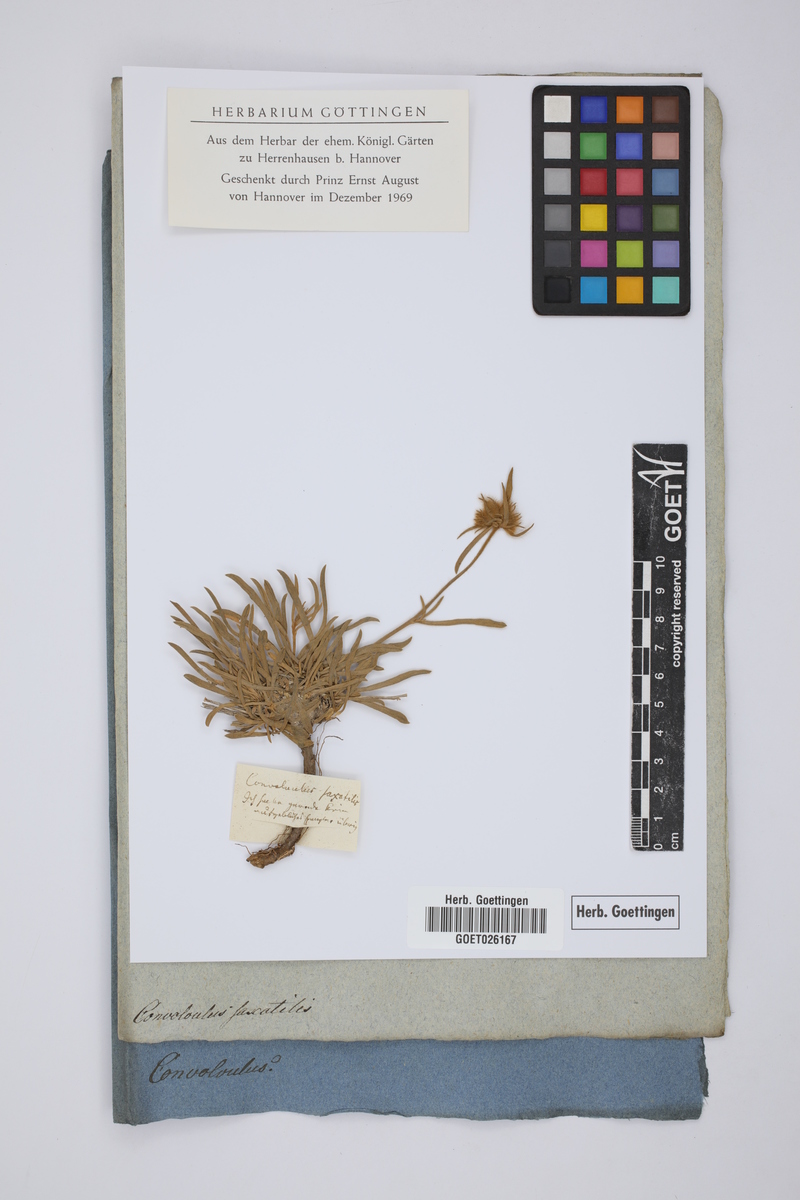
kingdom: Plantae
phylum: Tracheophyta
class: Magnoliopsida
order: Solanales
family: Convolvulaceae
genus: Convolvulus
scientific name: Convolvulus lanuginosus
